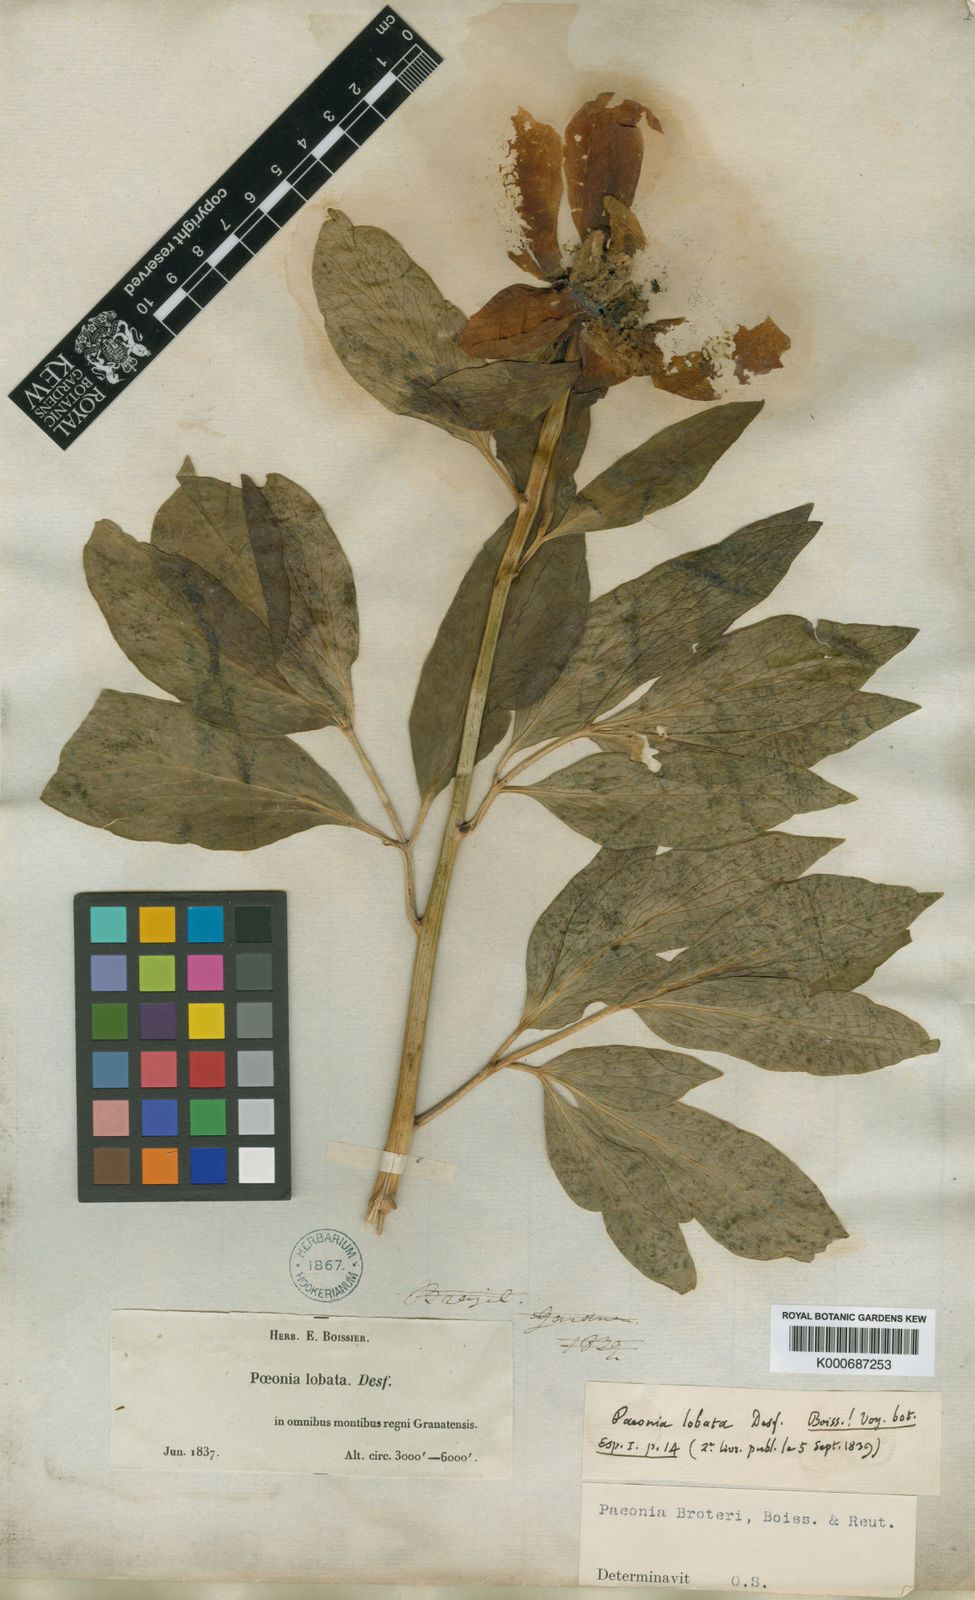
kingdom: Plantae
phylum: Tracheophyta
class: Magnoliopsida
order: Saxifragales
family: Paeoniaceae
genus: Paeonia
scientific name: Paeonia broteroi
